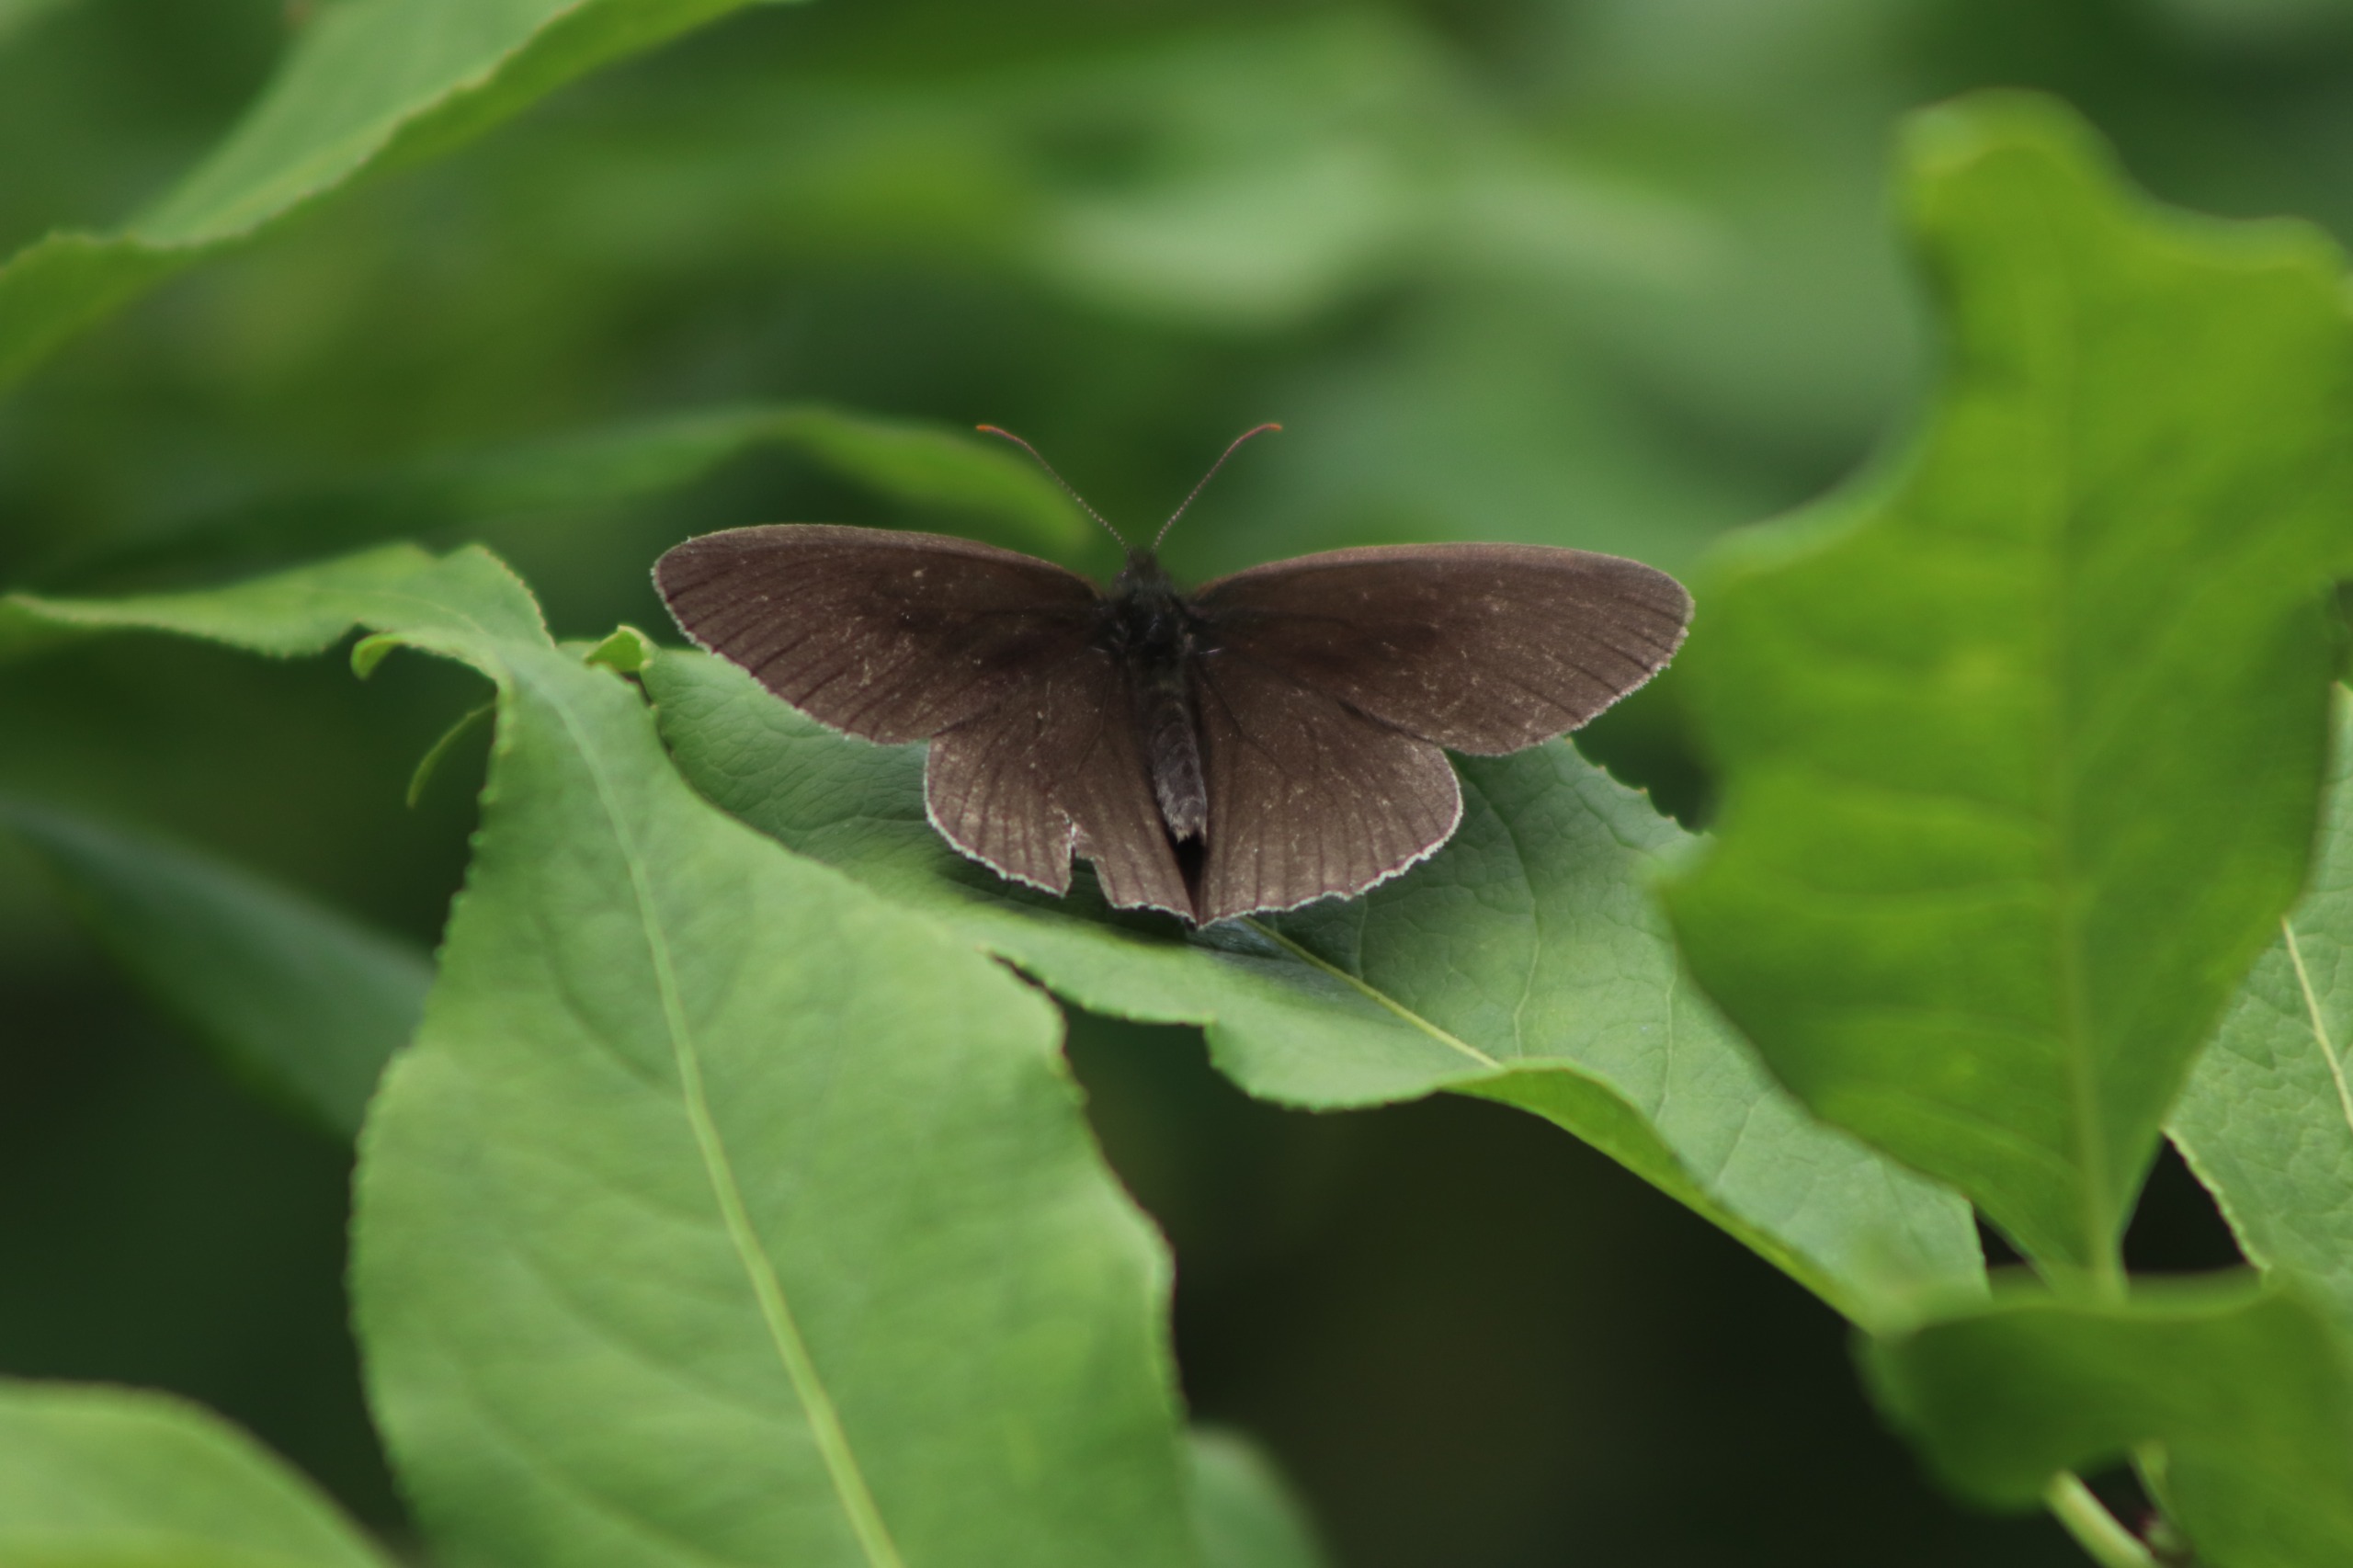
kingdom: Animalia
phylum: Arthropoda
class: Insecta
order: Lepidoptera
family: Nymphalidae
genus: Aphantopus
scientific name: Aphantopus hyperantus
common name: Engrandøje
